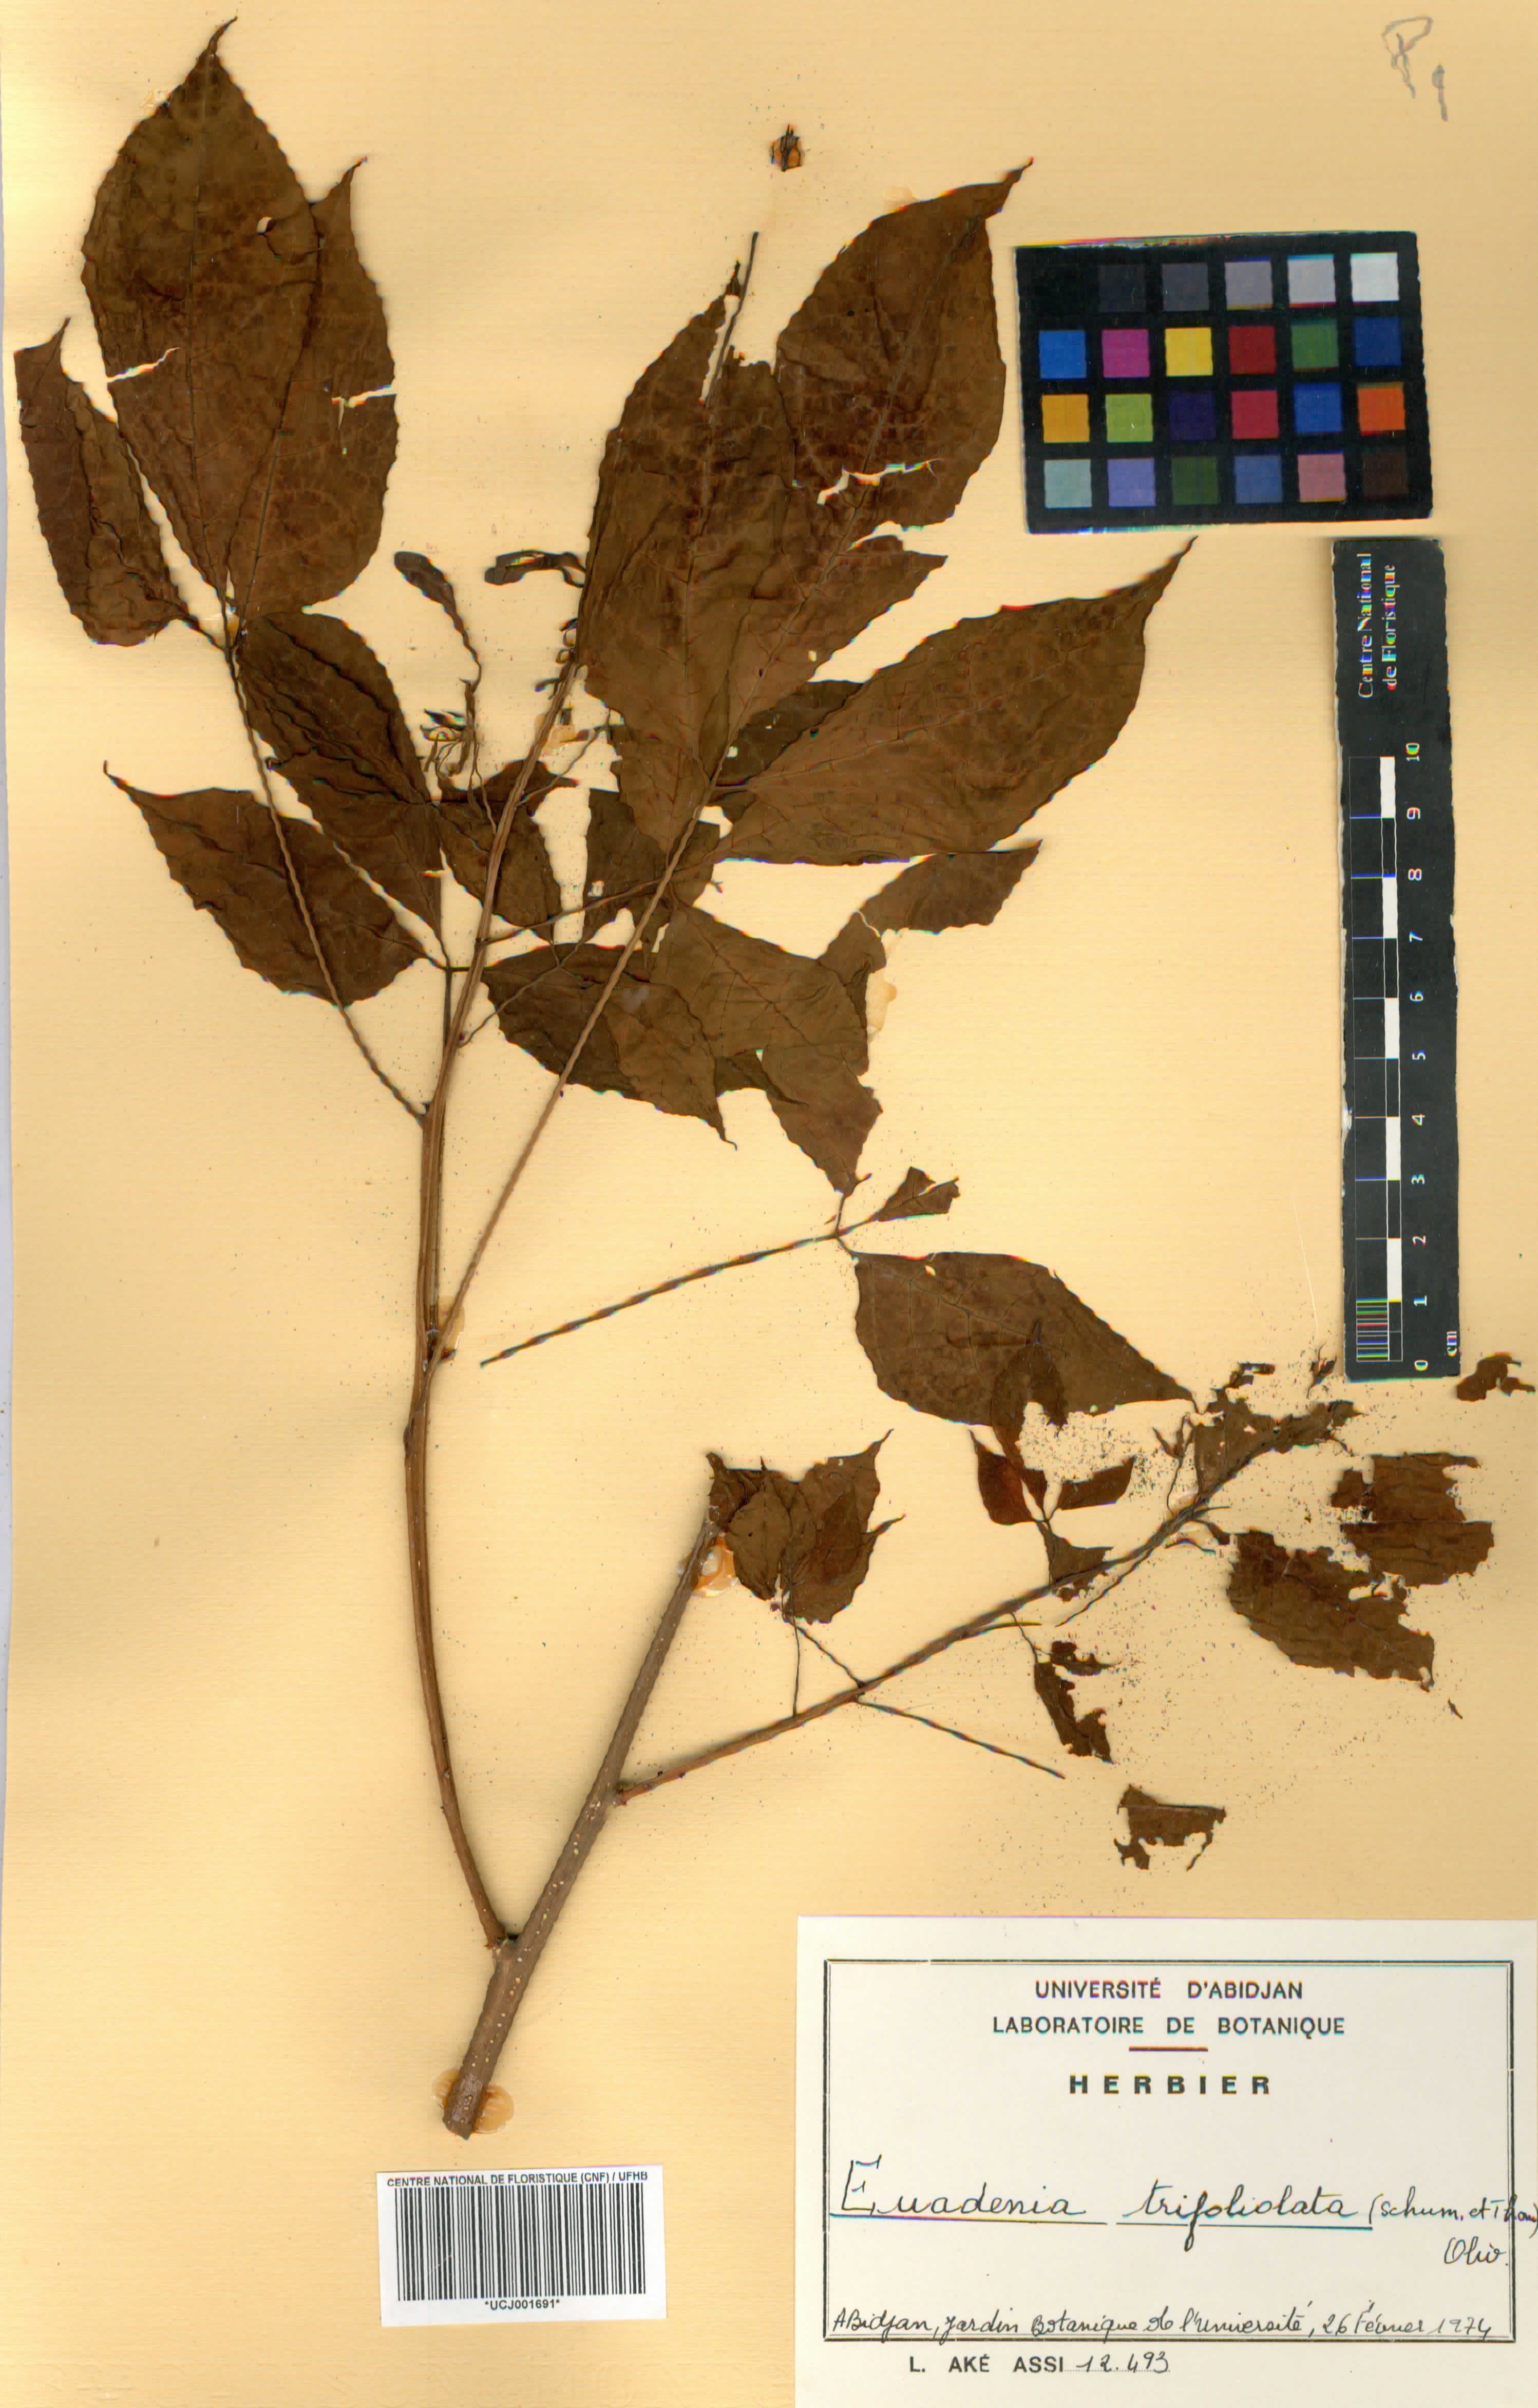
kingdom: Plantae
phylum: Tracheophyta
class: Magnoliopsida
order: Brassicales
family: Capparaceae
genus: Euadenia
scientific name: Euadenia trifoliolata
